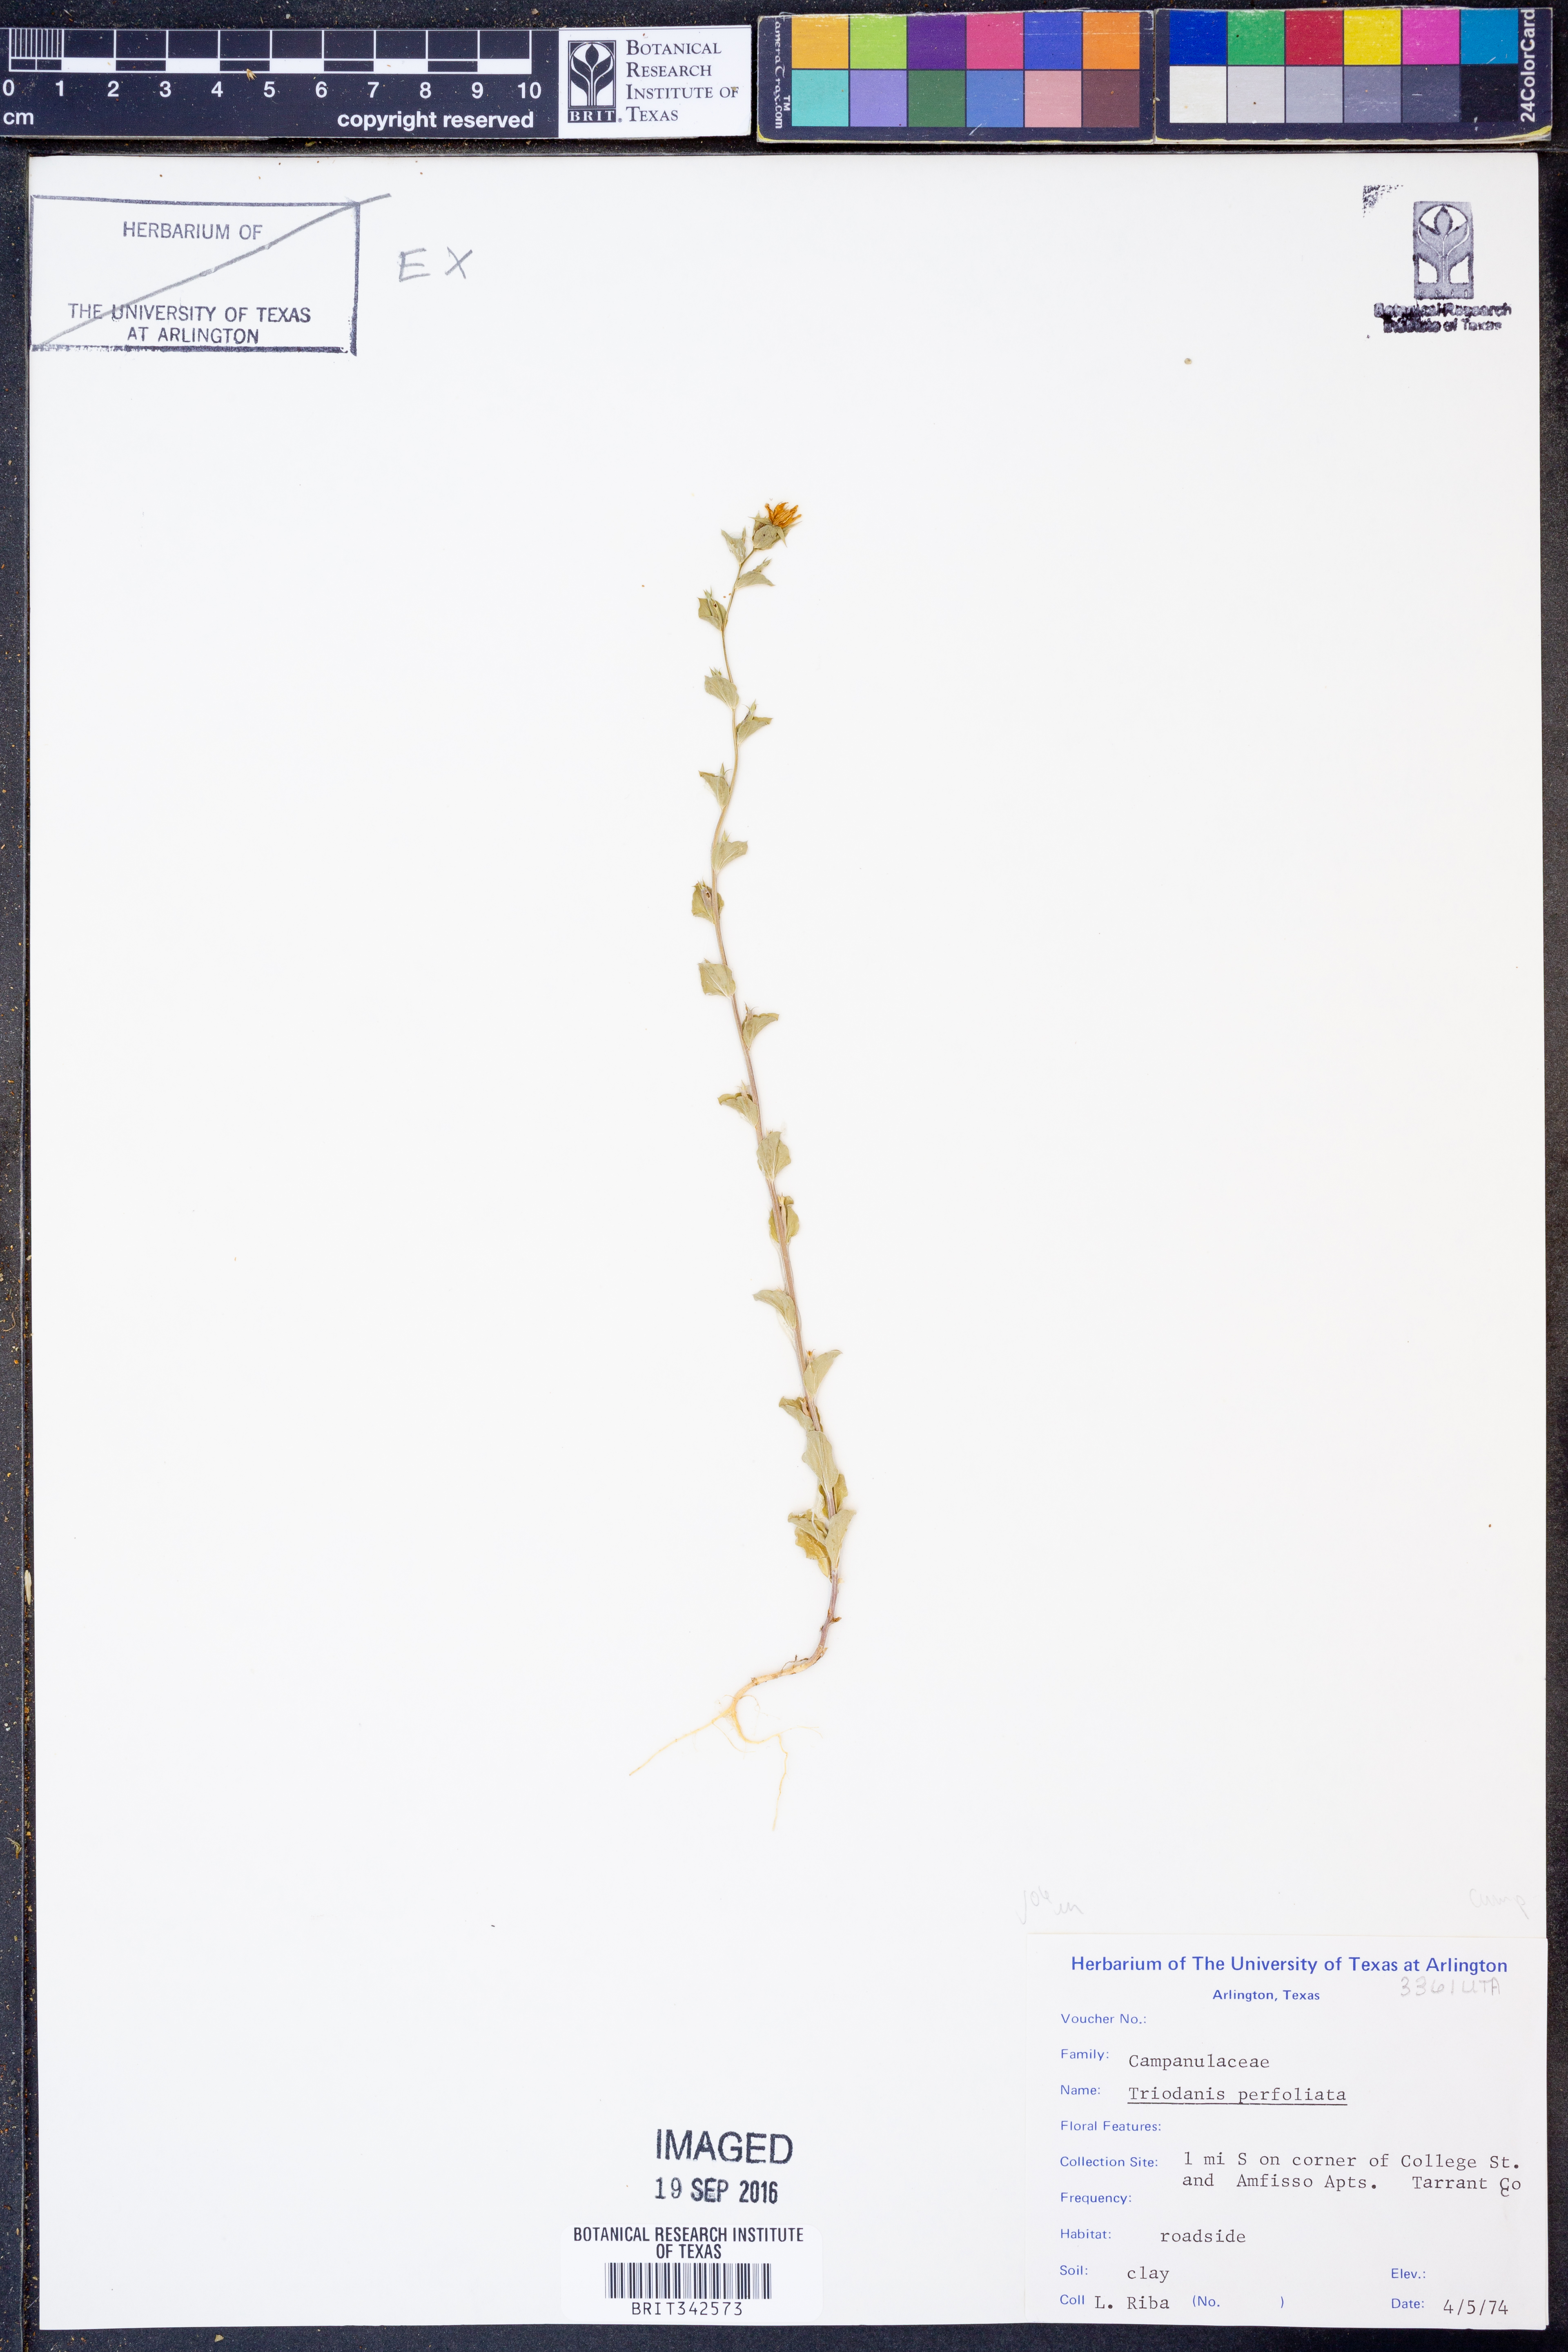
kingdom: Plantae
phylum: Tracheophyta
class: Magnoliopsida
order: Asterales
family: Campanulaceae
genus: Triodanis
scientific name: Triodanis perfoliata
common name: Clasping venus' looking-glass
